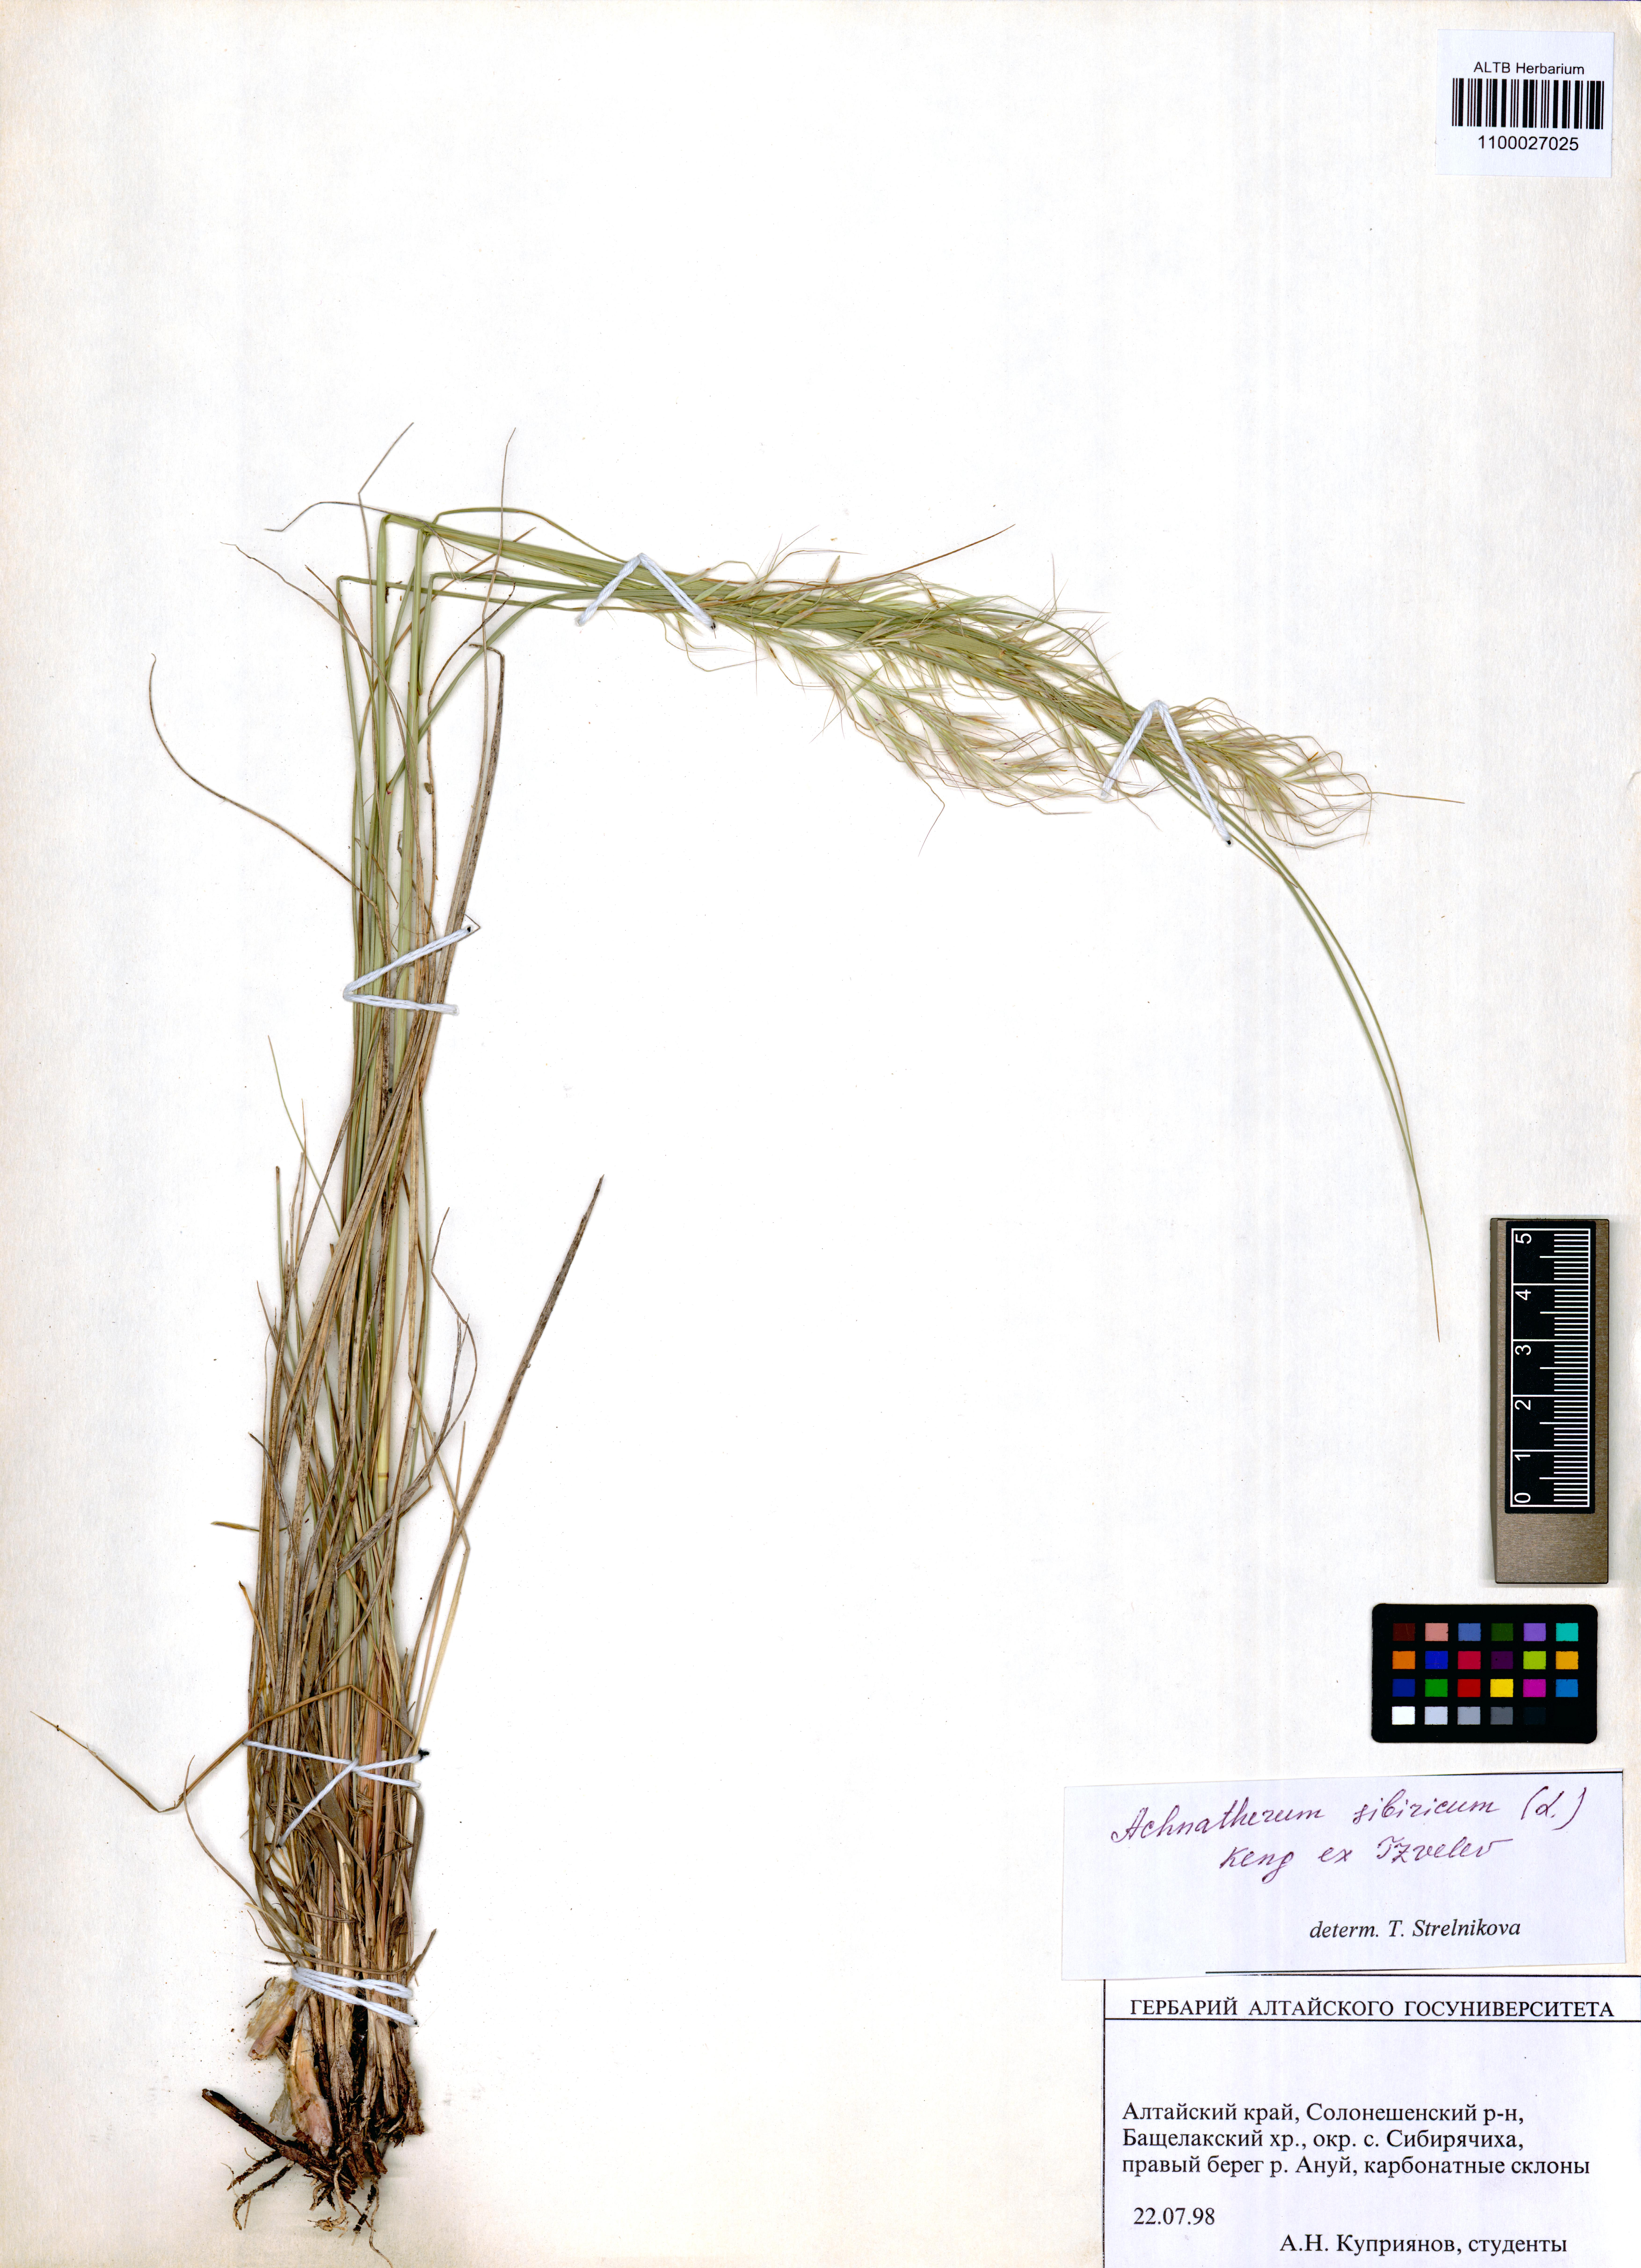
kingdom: Plantae
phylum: Tracheophyta
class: Liliopsida
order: Poales
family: Poaceae
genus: Achnatherum
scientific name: Achnatherum sibiricum
